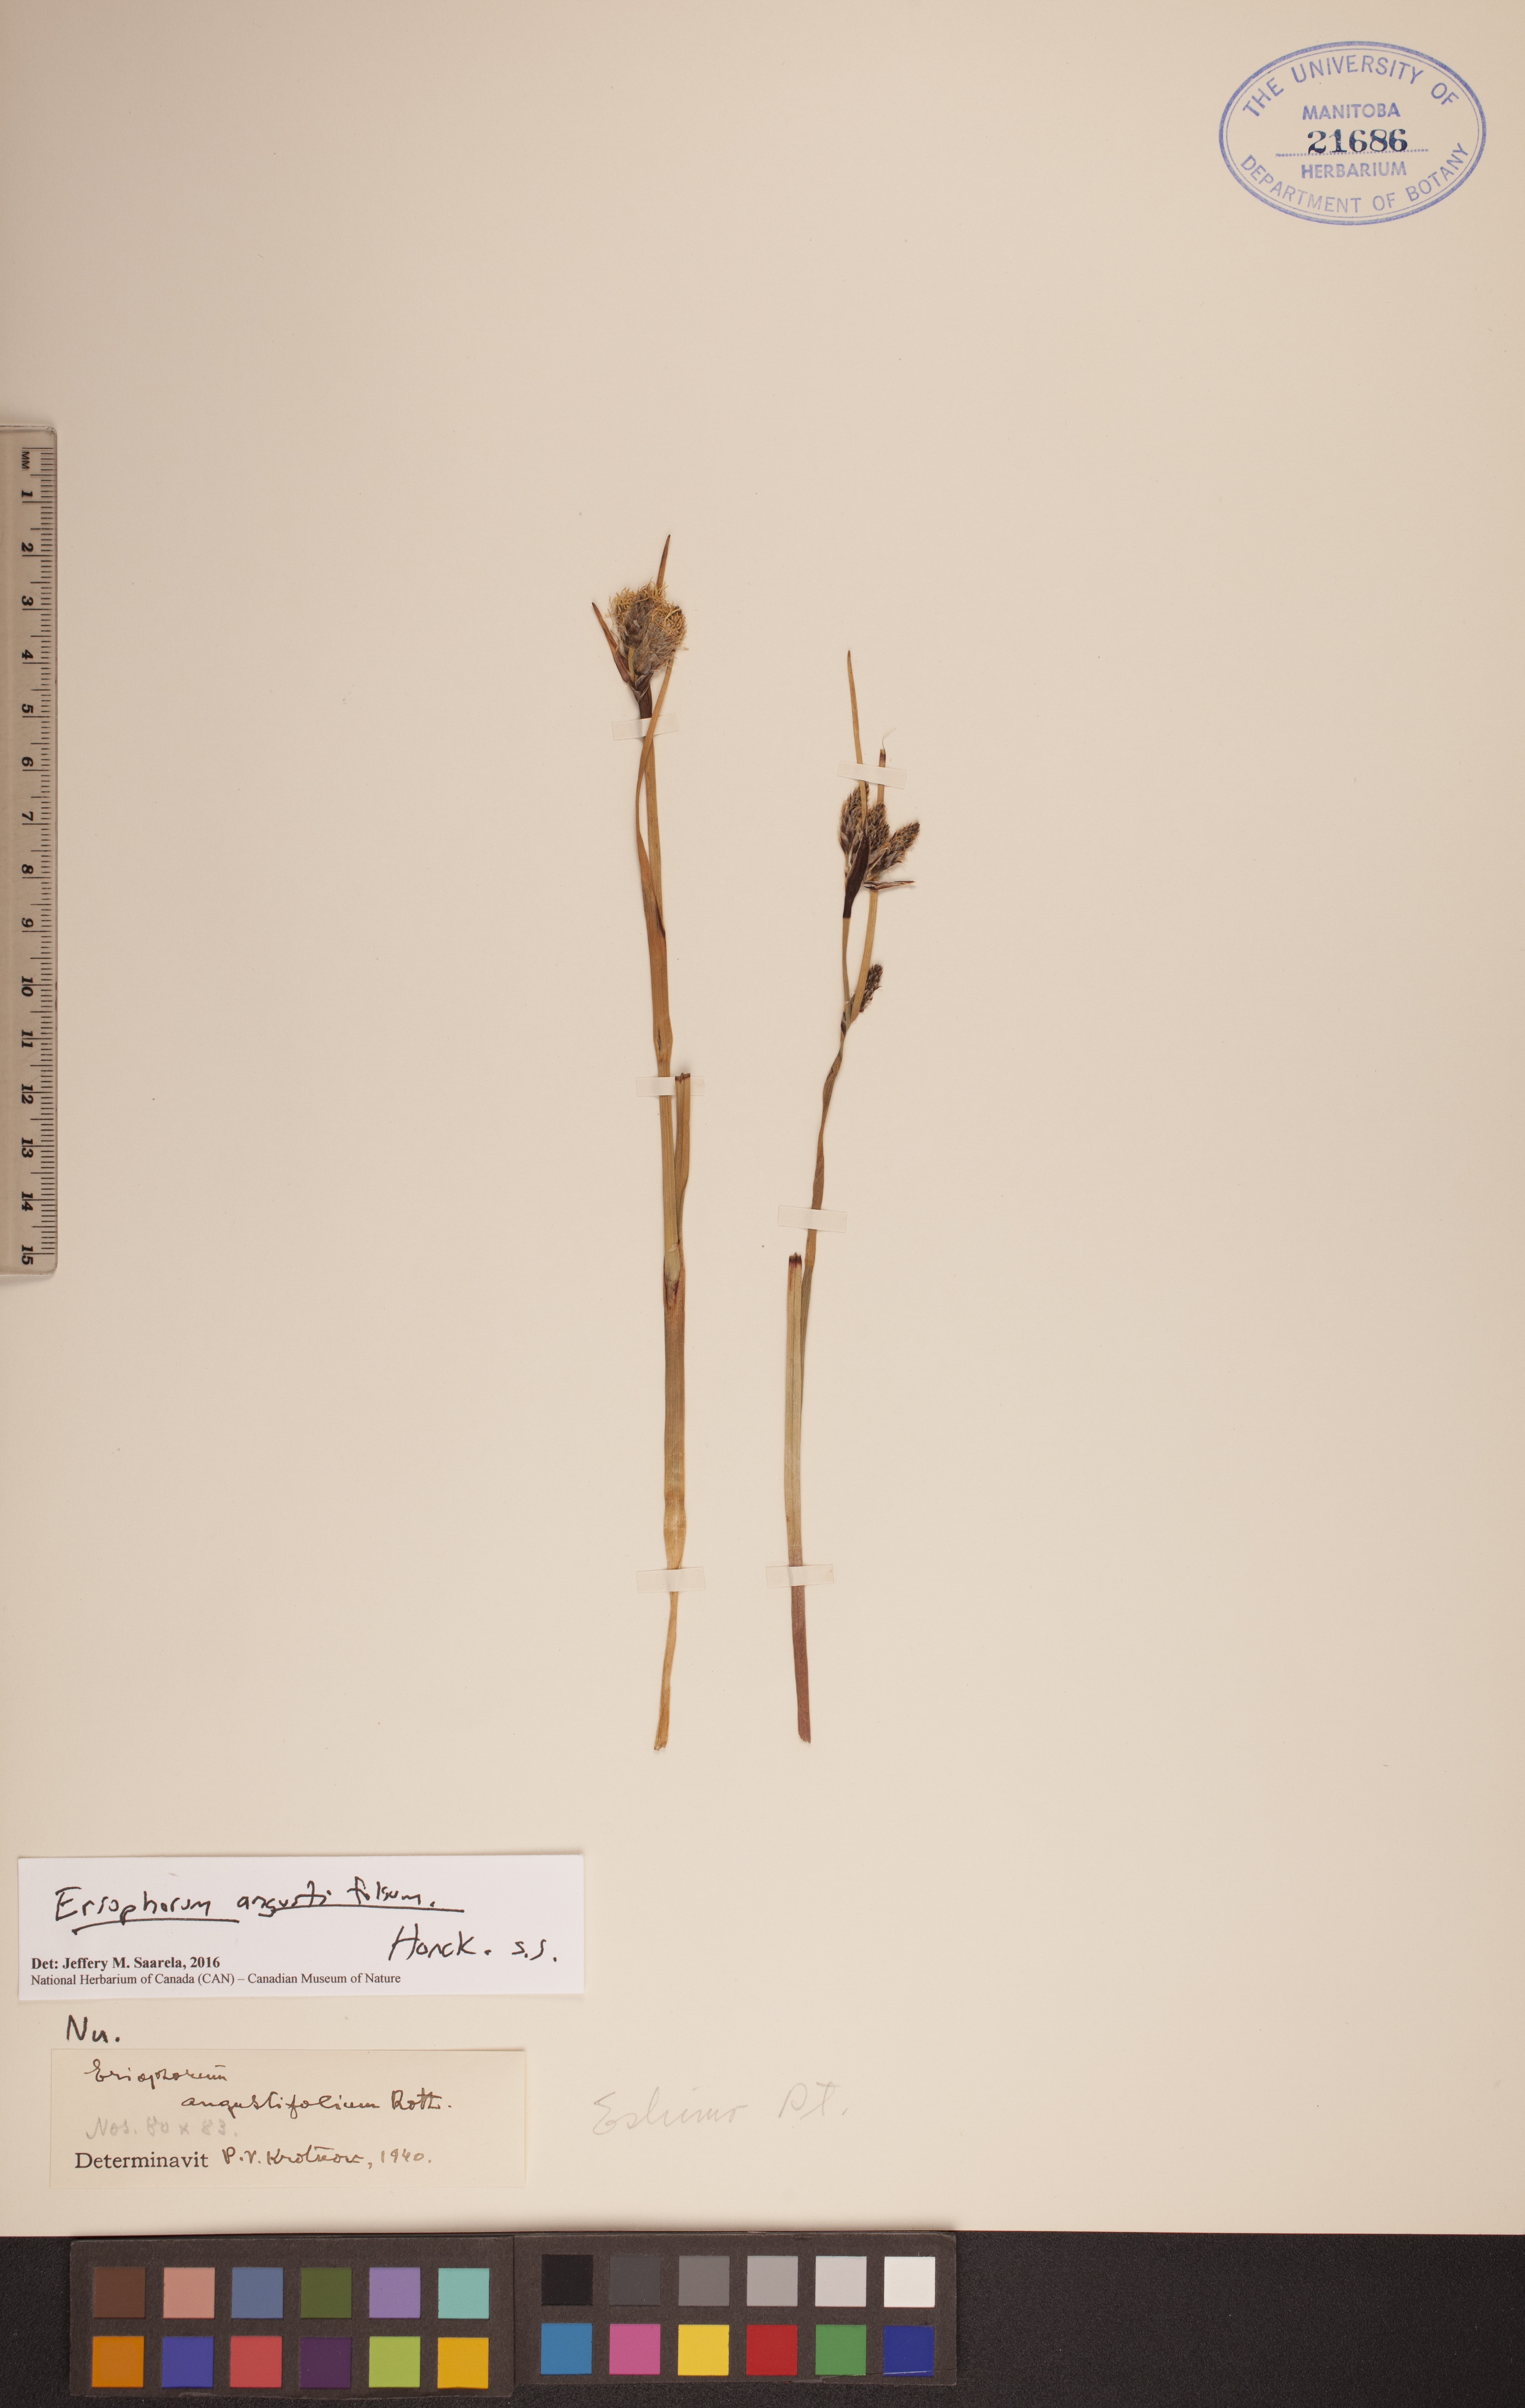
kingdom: Plantae
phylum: Tracheophyta
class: Liliopsida
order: Poales
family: Cyperaceae
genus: Eriophorum
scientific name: Eriophorum angustifolium
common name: Common cottongrass
